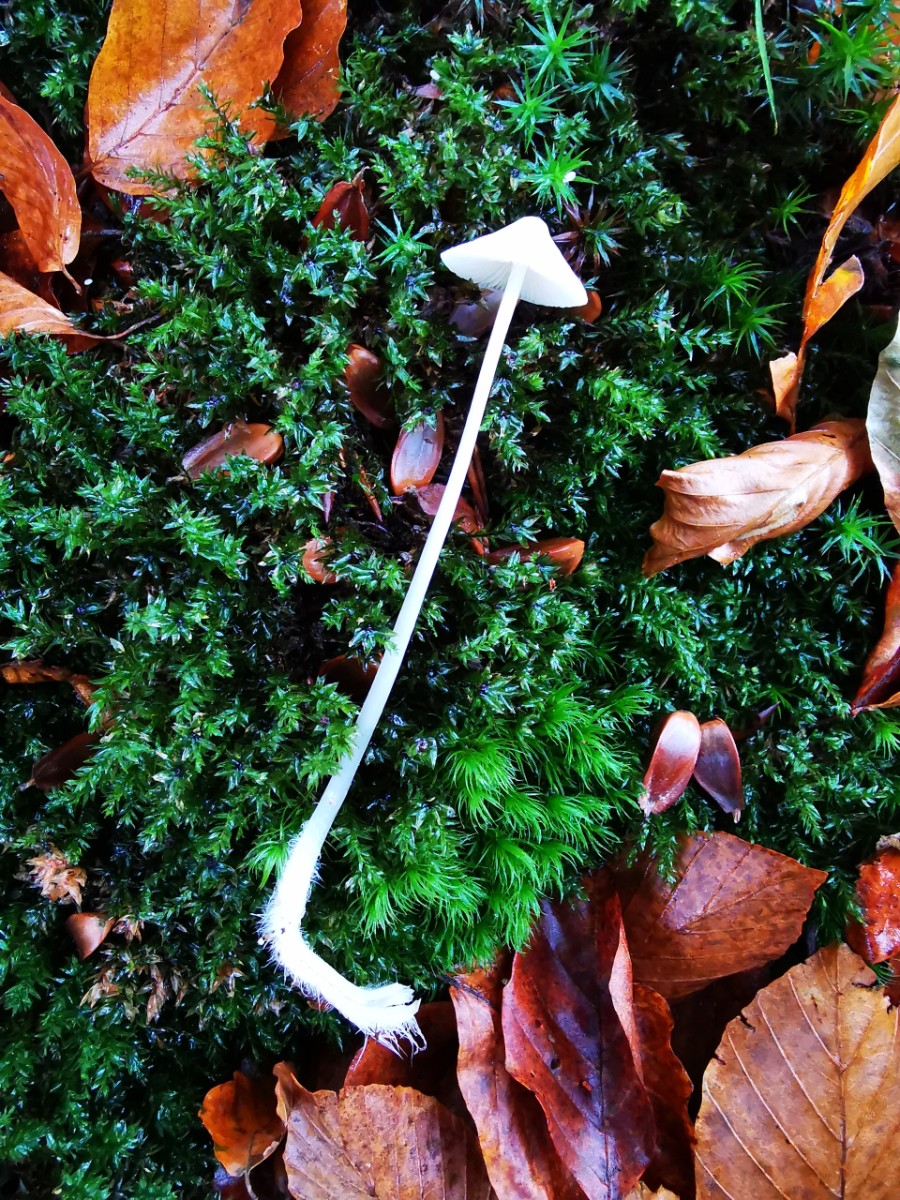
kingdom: Fungi
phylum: Basidiomycota
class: Agaricomycetes
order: Agaricales
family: Mycenaceae
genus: Mycena
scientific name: Mycena
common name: huesvamp
